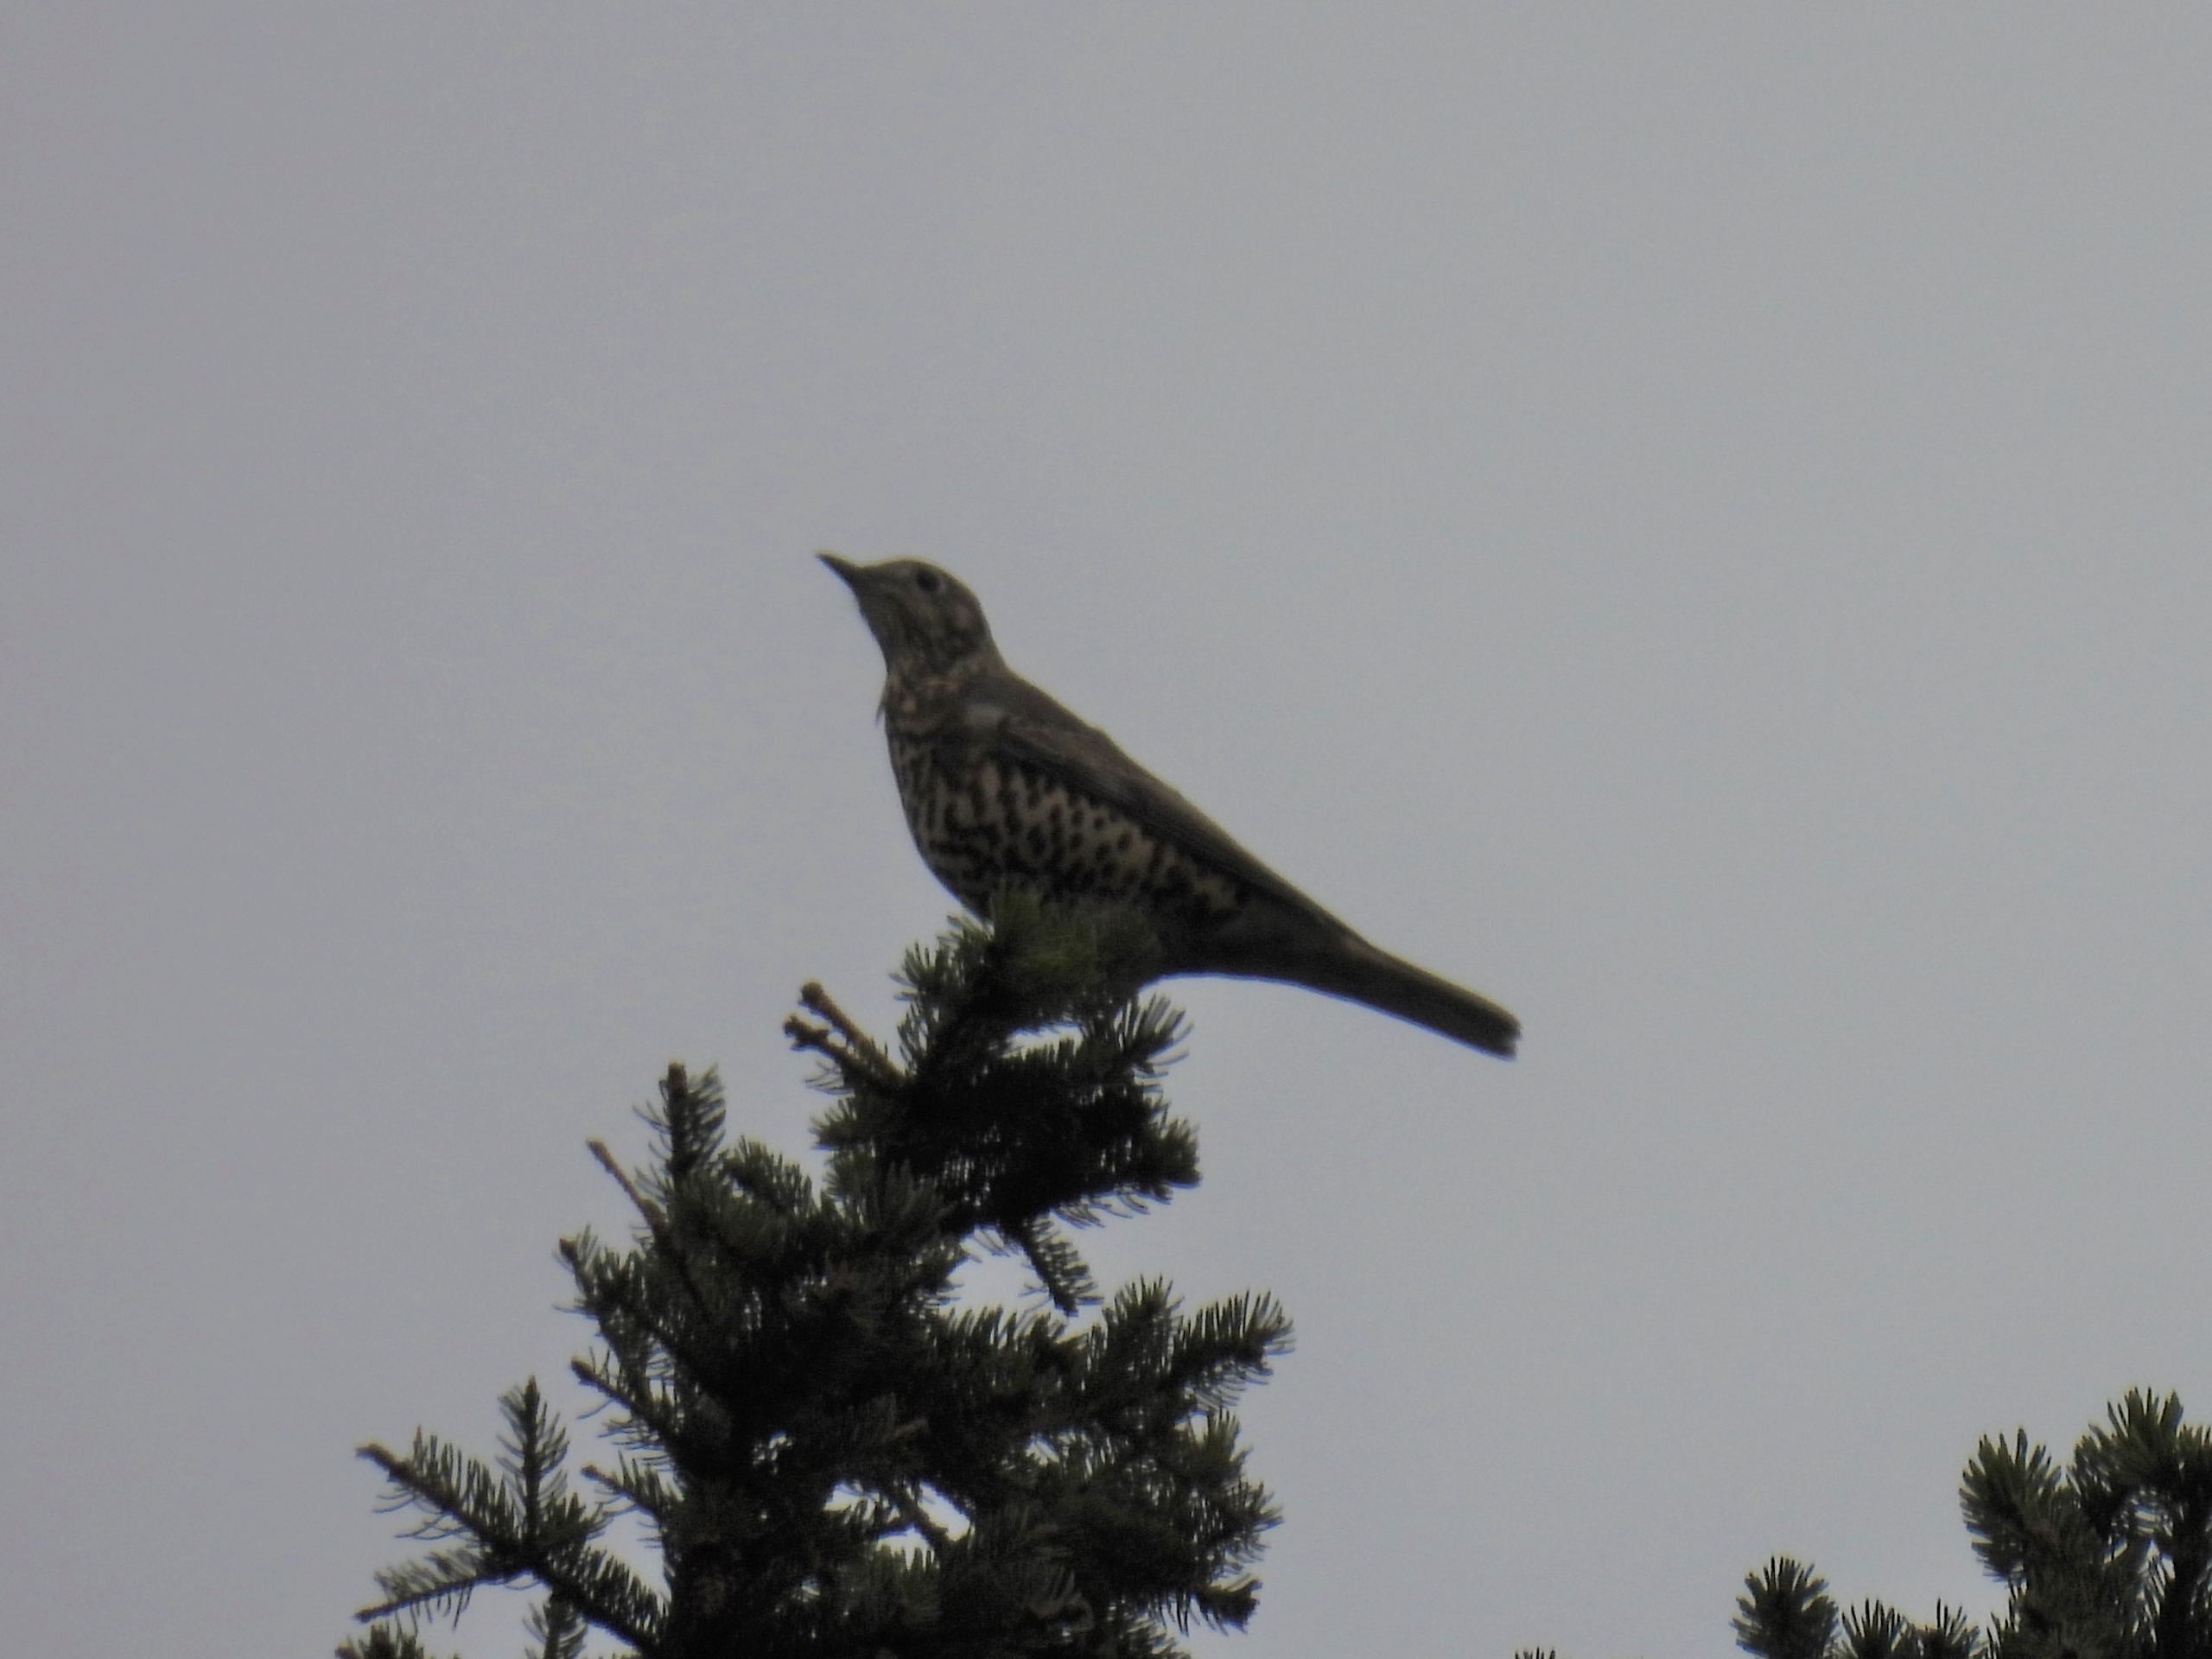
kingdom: Animalia
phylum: Chordata
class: Aves
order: Passeriformes
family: Turdidae
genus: Turdus
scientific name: Turdus viscivorus
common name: Misteldrossel
